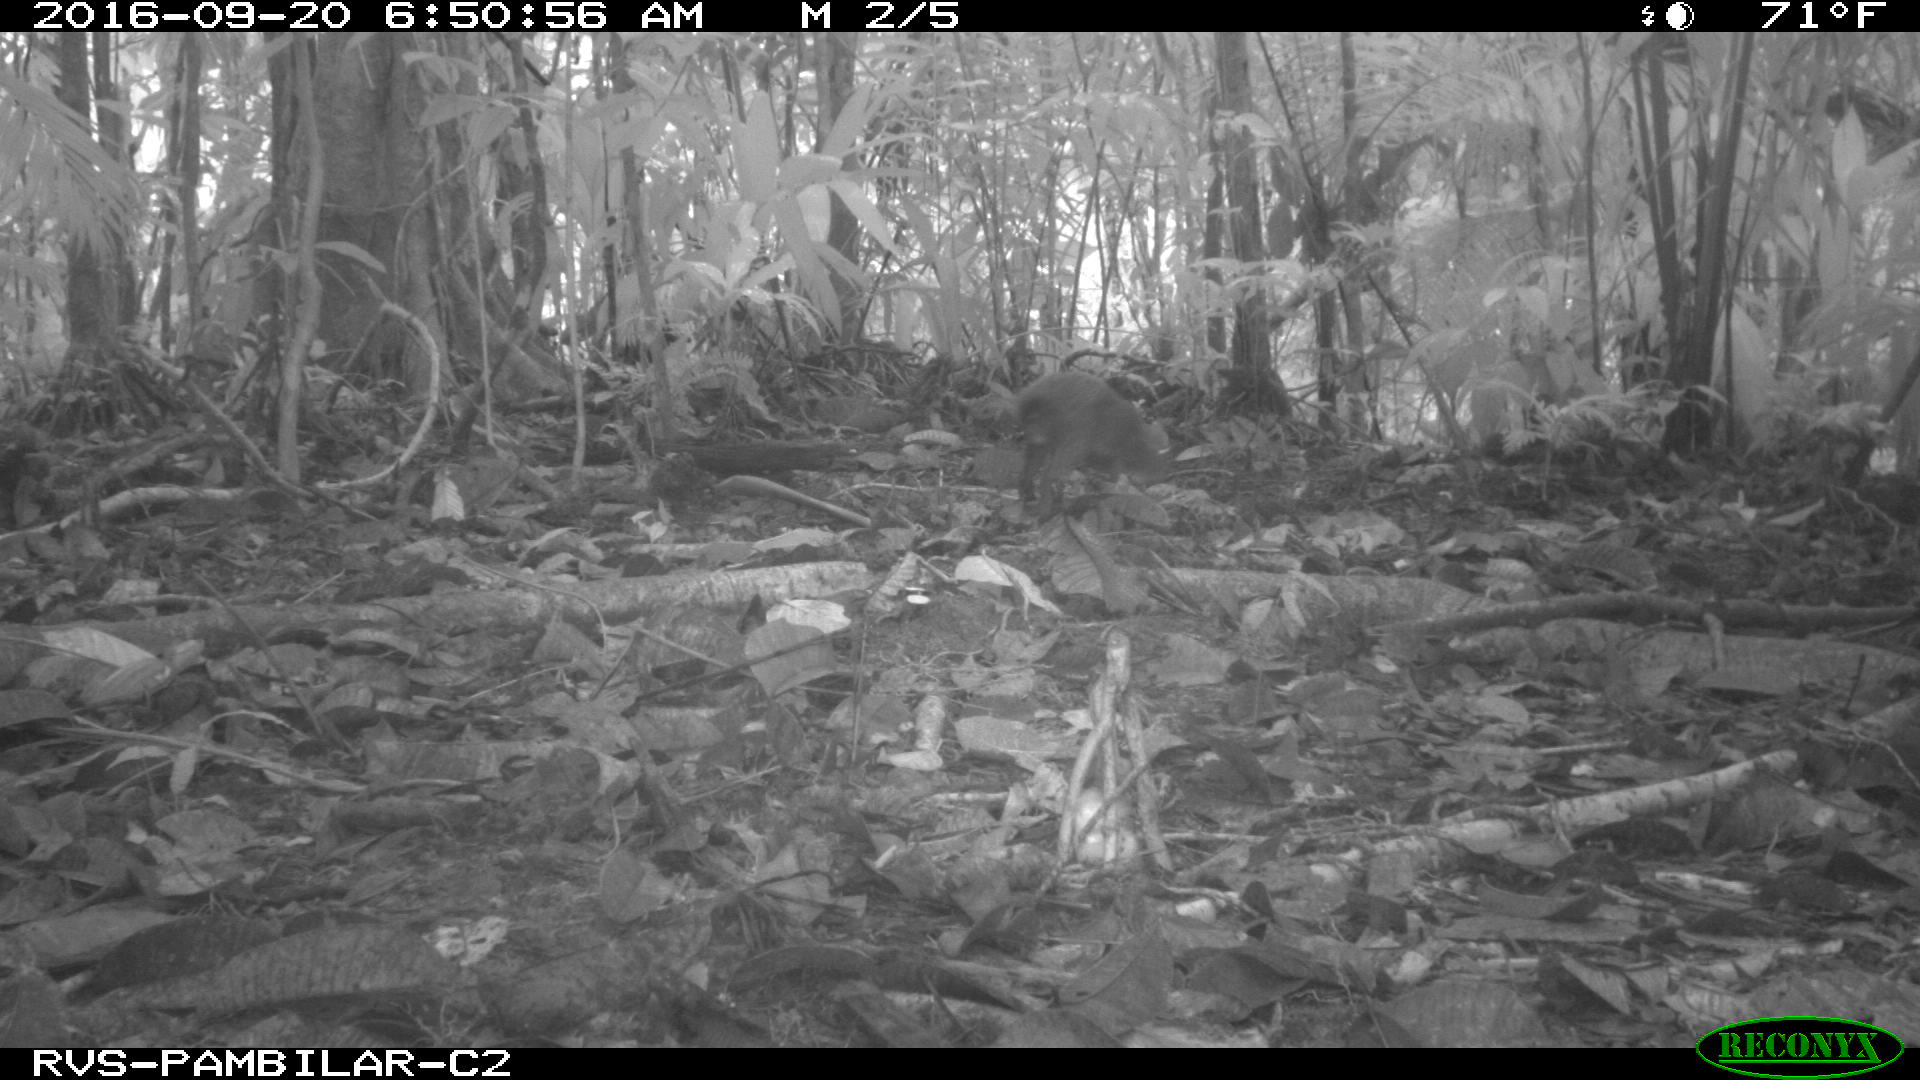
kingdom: Animalia
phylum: Chordata
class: Mammalia
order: Rodentia
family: Dasyproctidae
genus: Dasyprocta
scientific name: Dasyprocta punctata
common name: Central american agouti
